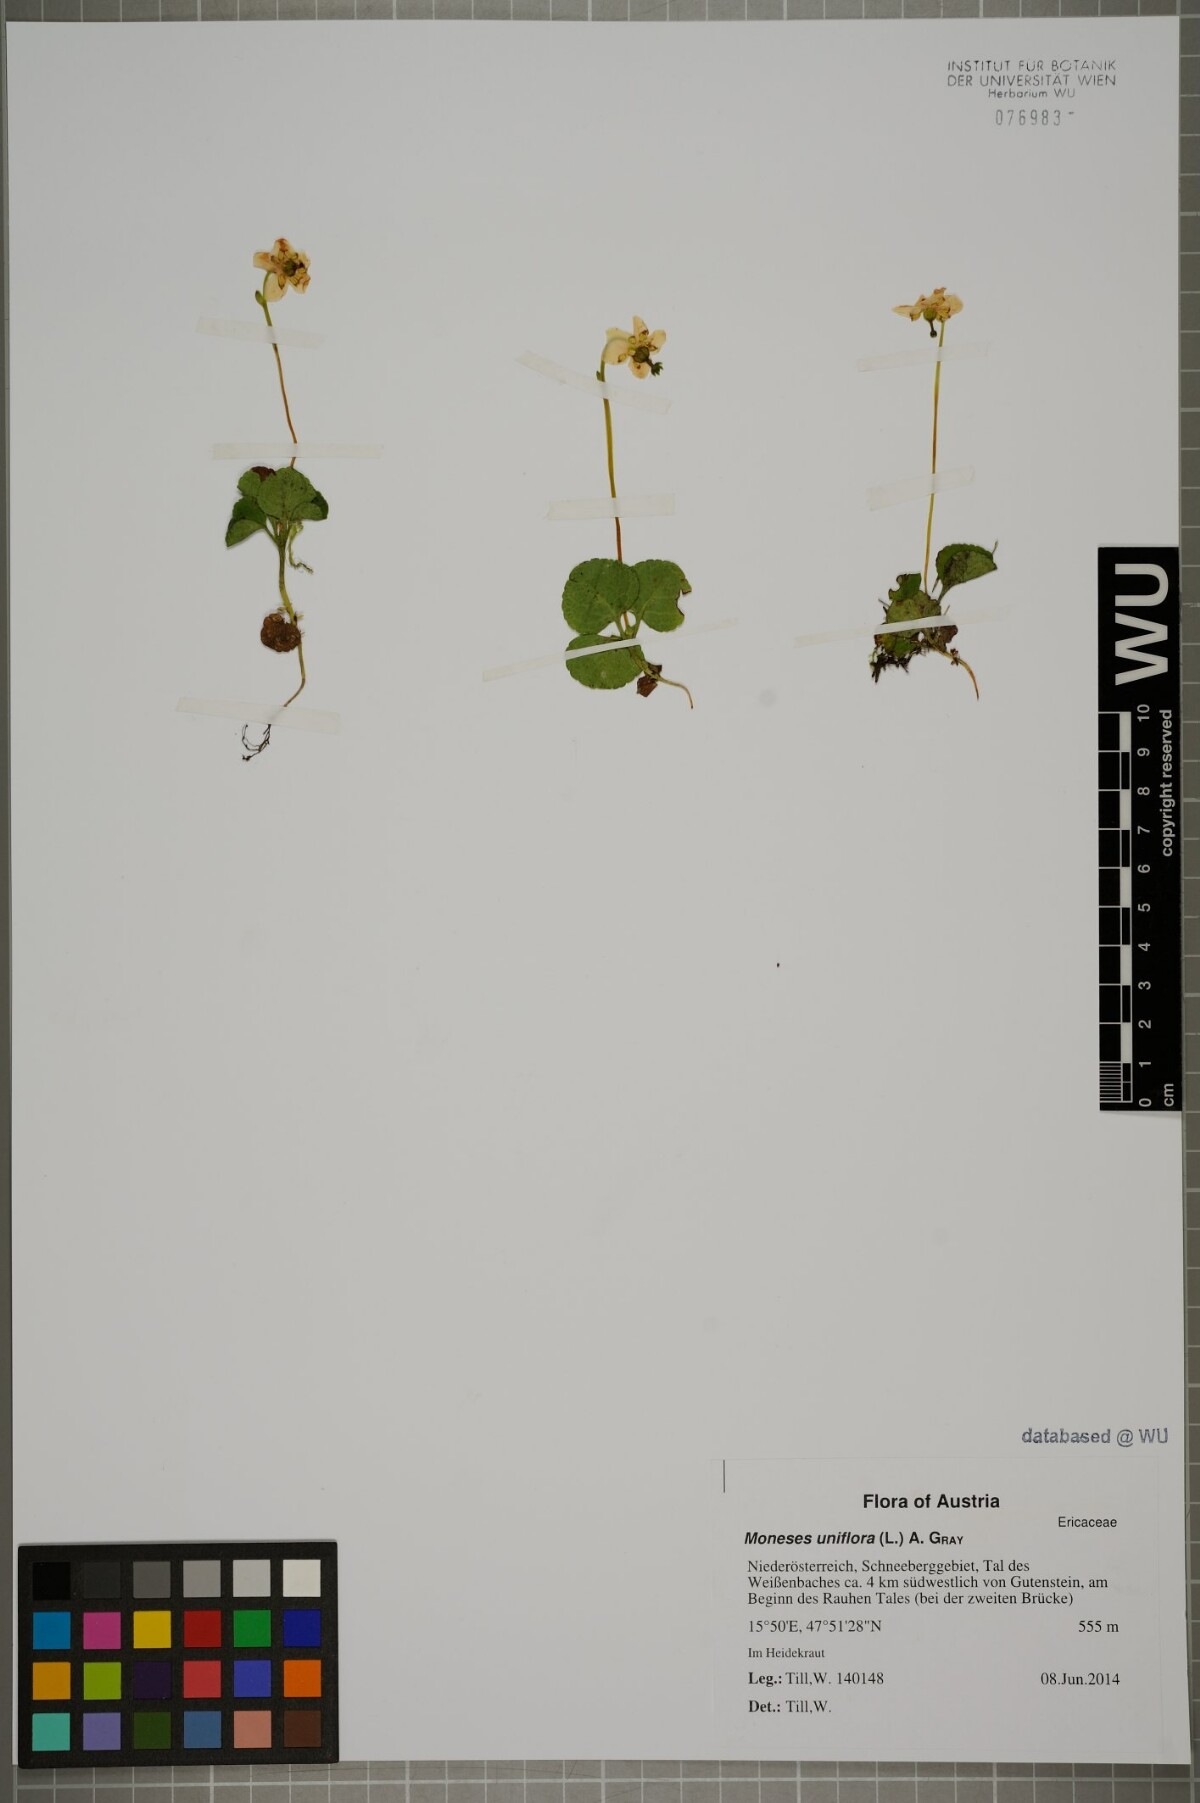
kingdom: Plantae
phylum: Tracheophyta
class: Magnoliopsida
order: Ericales
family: Ericaceae
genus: Moneses
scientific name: Moneses uniflora
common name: One-flowered wintergreen
